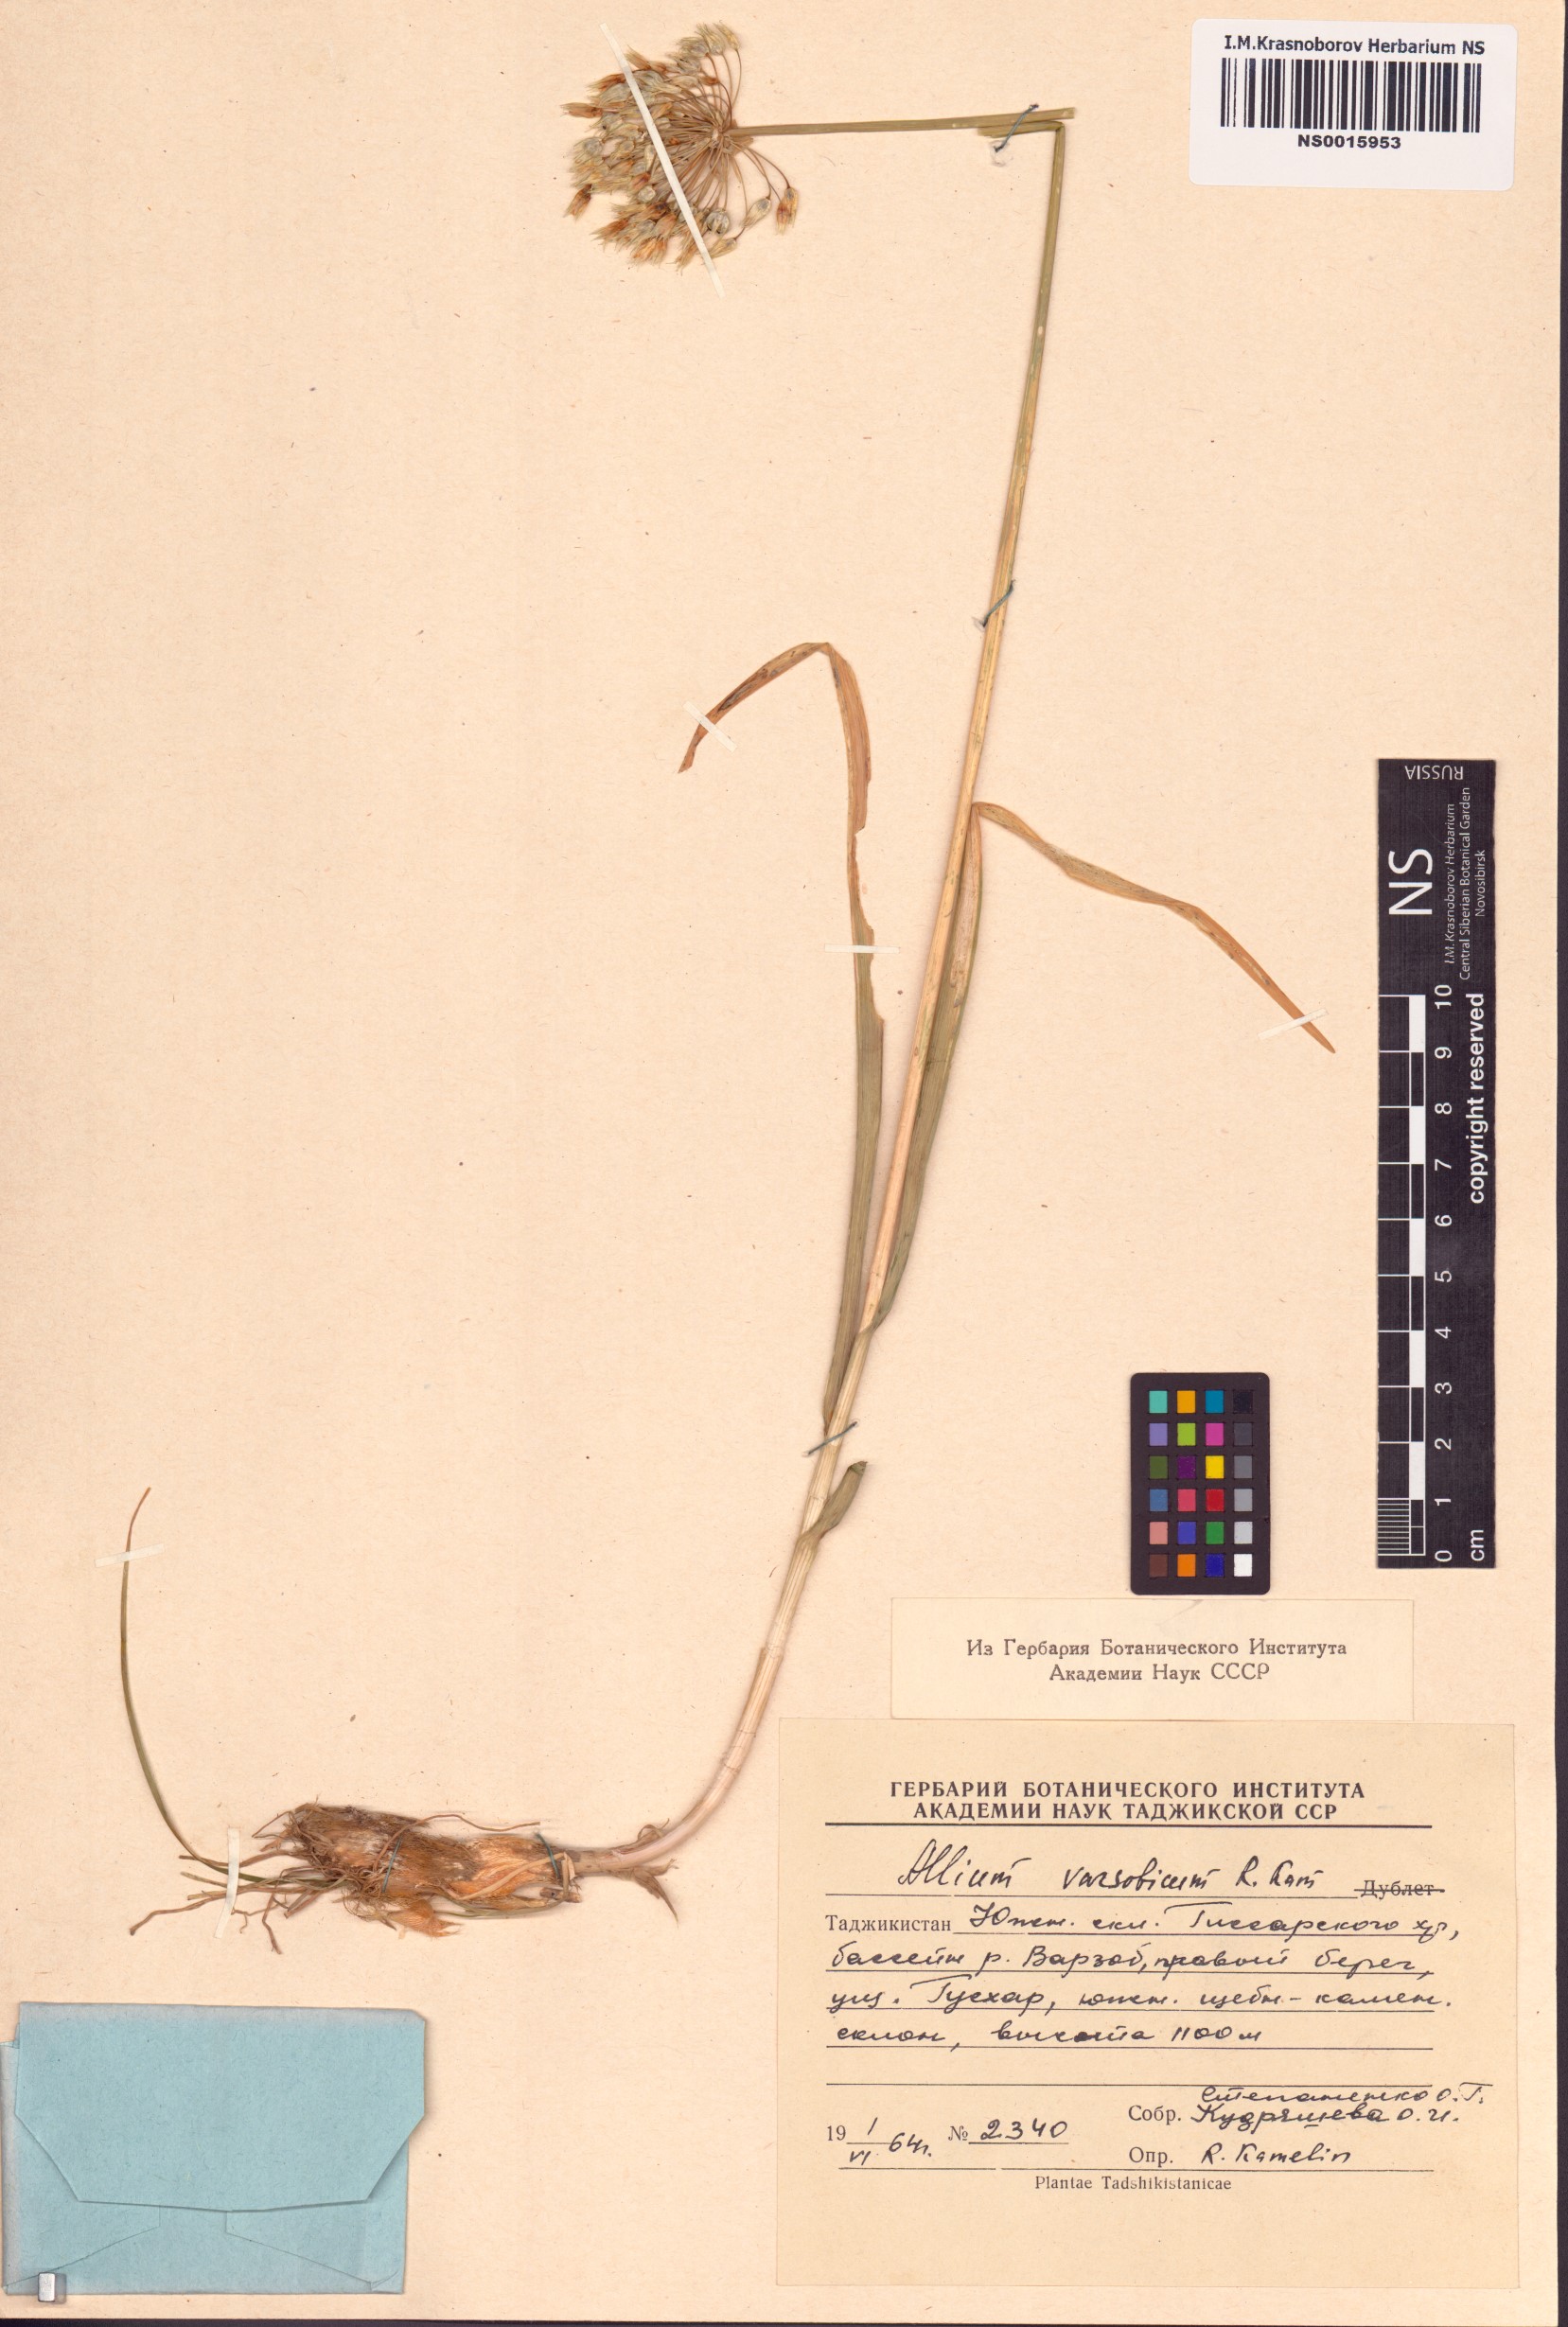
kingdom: Plantae
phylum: Tracheophyta
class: Liliopsida
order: Asparagales
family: Amaryllidaceae
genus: Allium
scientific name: Allium warzobicum
